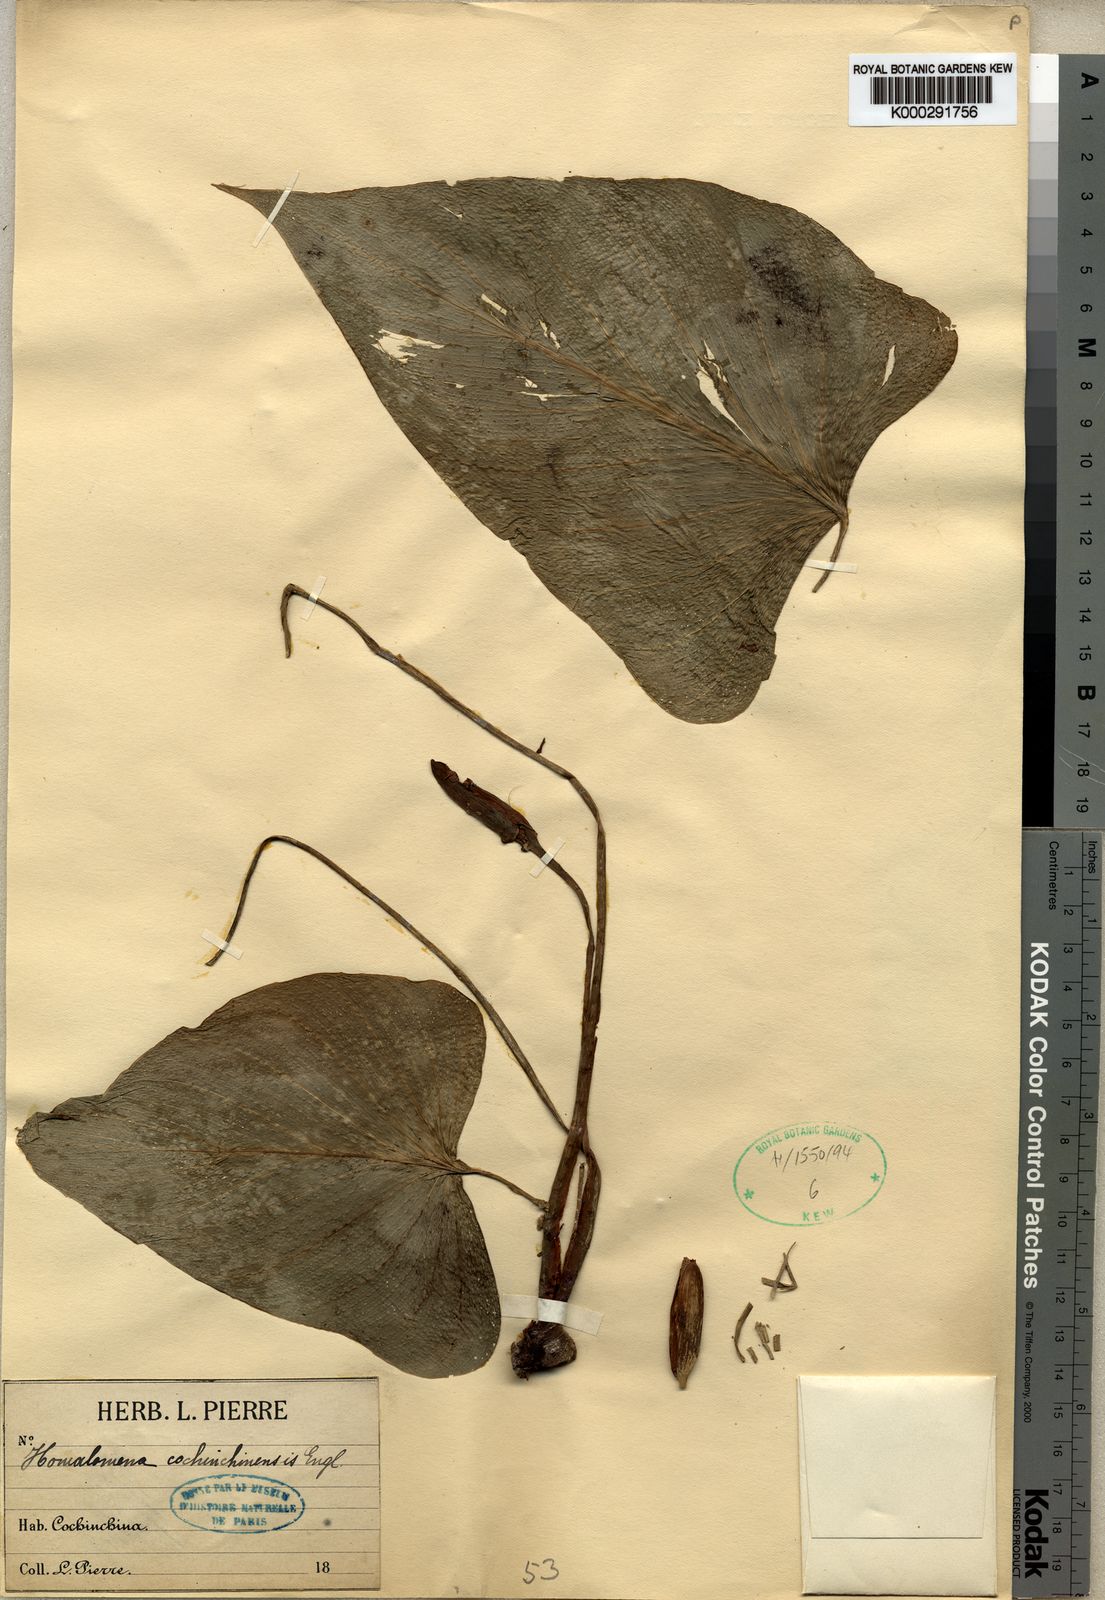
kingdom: Plantae
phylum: Tracheophyta
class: Liliopsida
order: Alismatales
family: Araceae
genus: Homalomena
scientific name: Homalomena cochinchinensis
